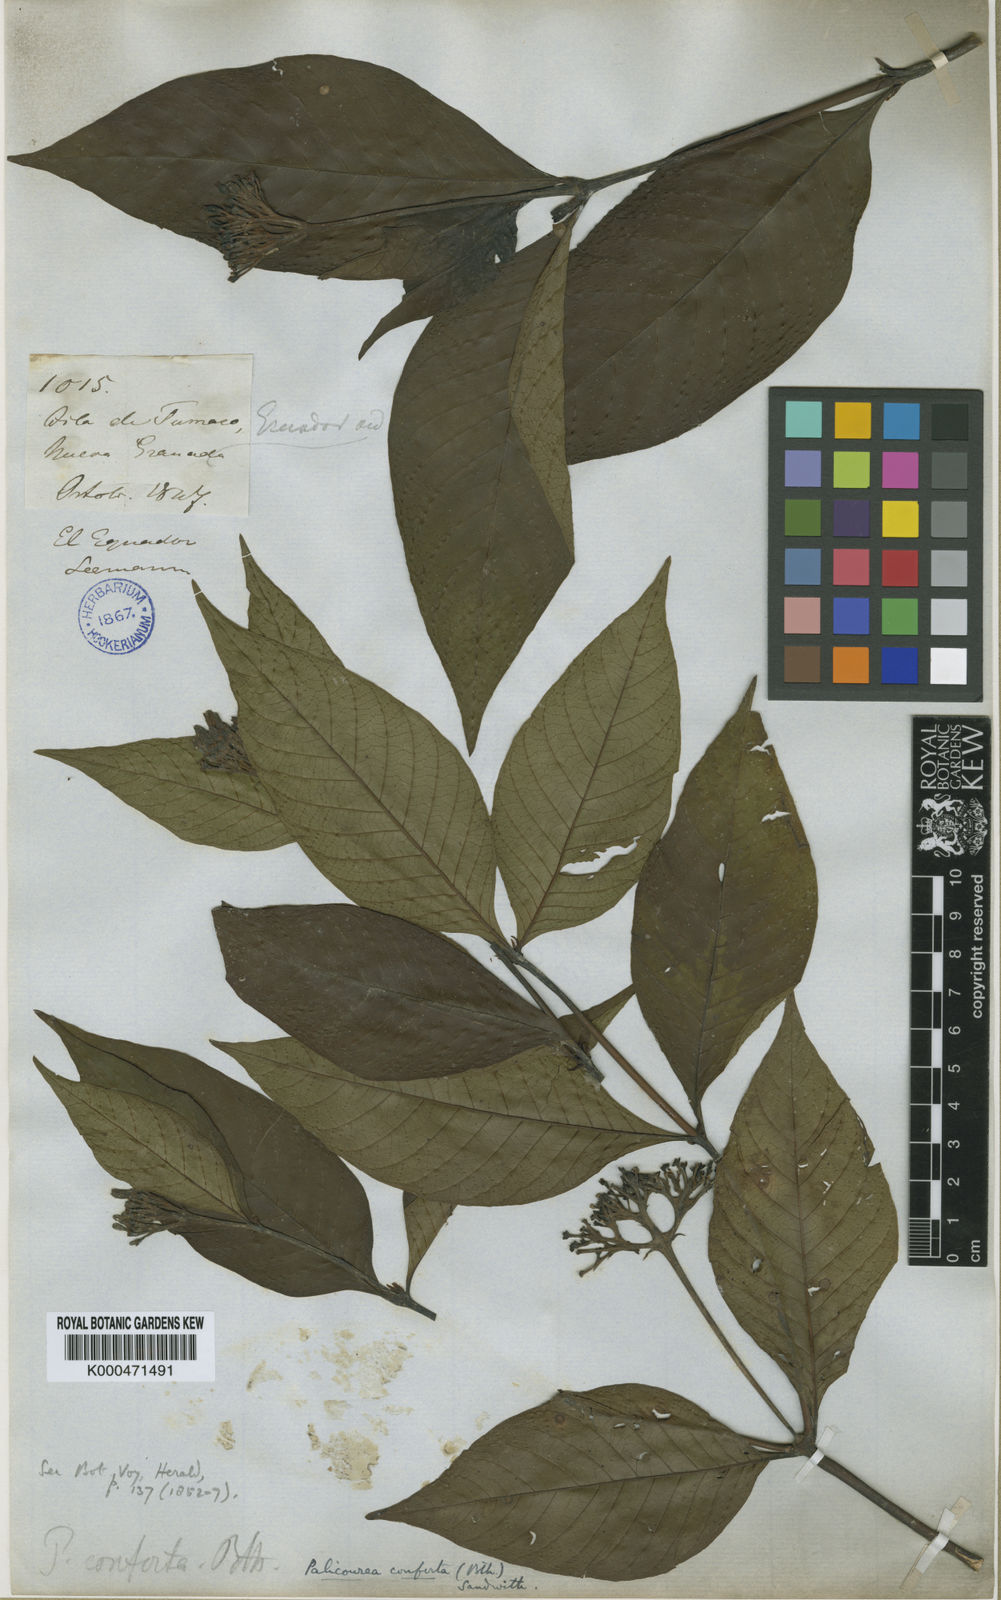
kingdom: Plantae
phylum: Tracheophyta
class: Magnoliopsida
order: Gentianales
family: Rubiaceae
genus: Palicourea
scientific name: Palicourea conferta
